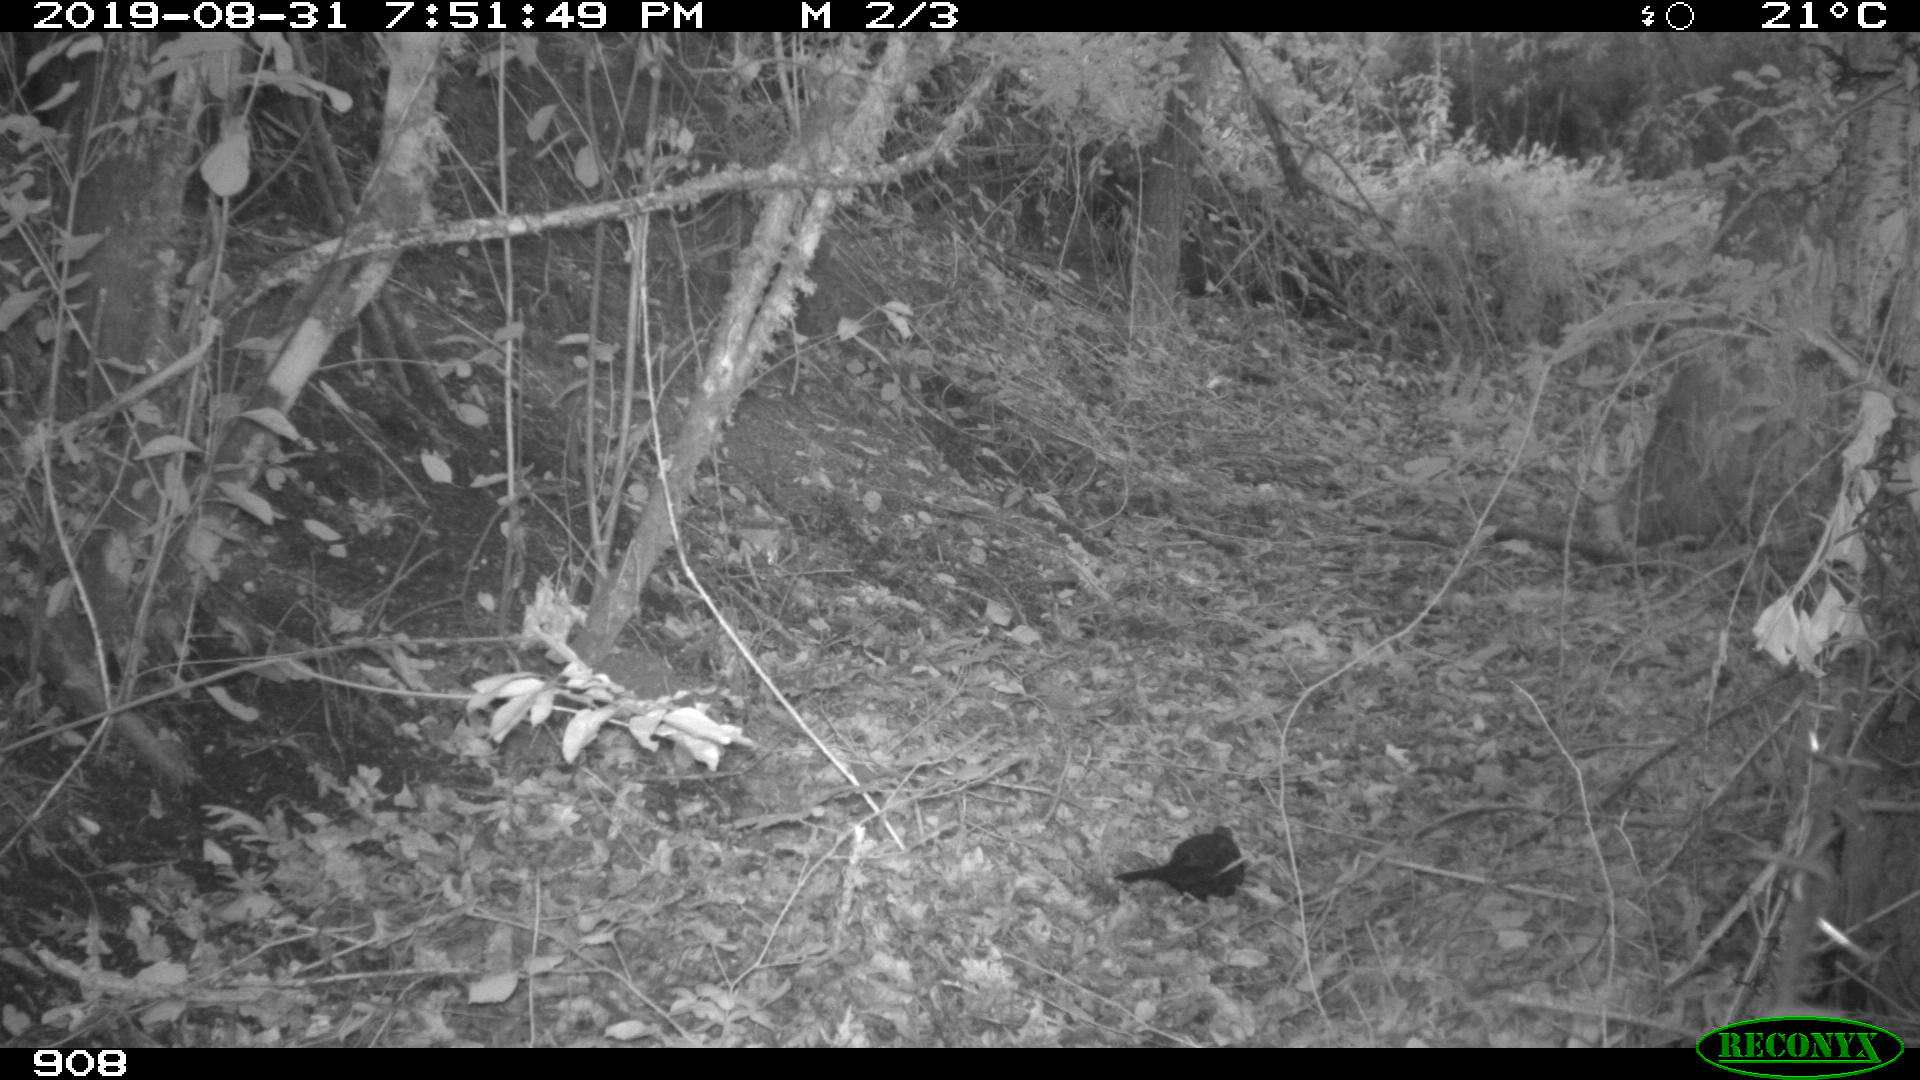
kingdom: Animalia
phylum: Chordata
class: Aves
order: Passeriformes
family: Turdidae
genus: Turdus
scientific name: Turdus merula
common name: Common blackbird
